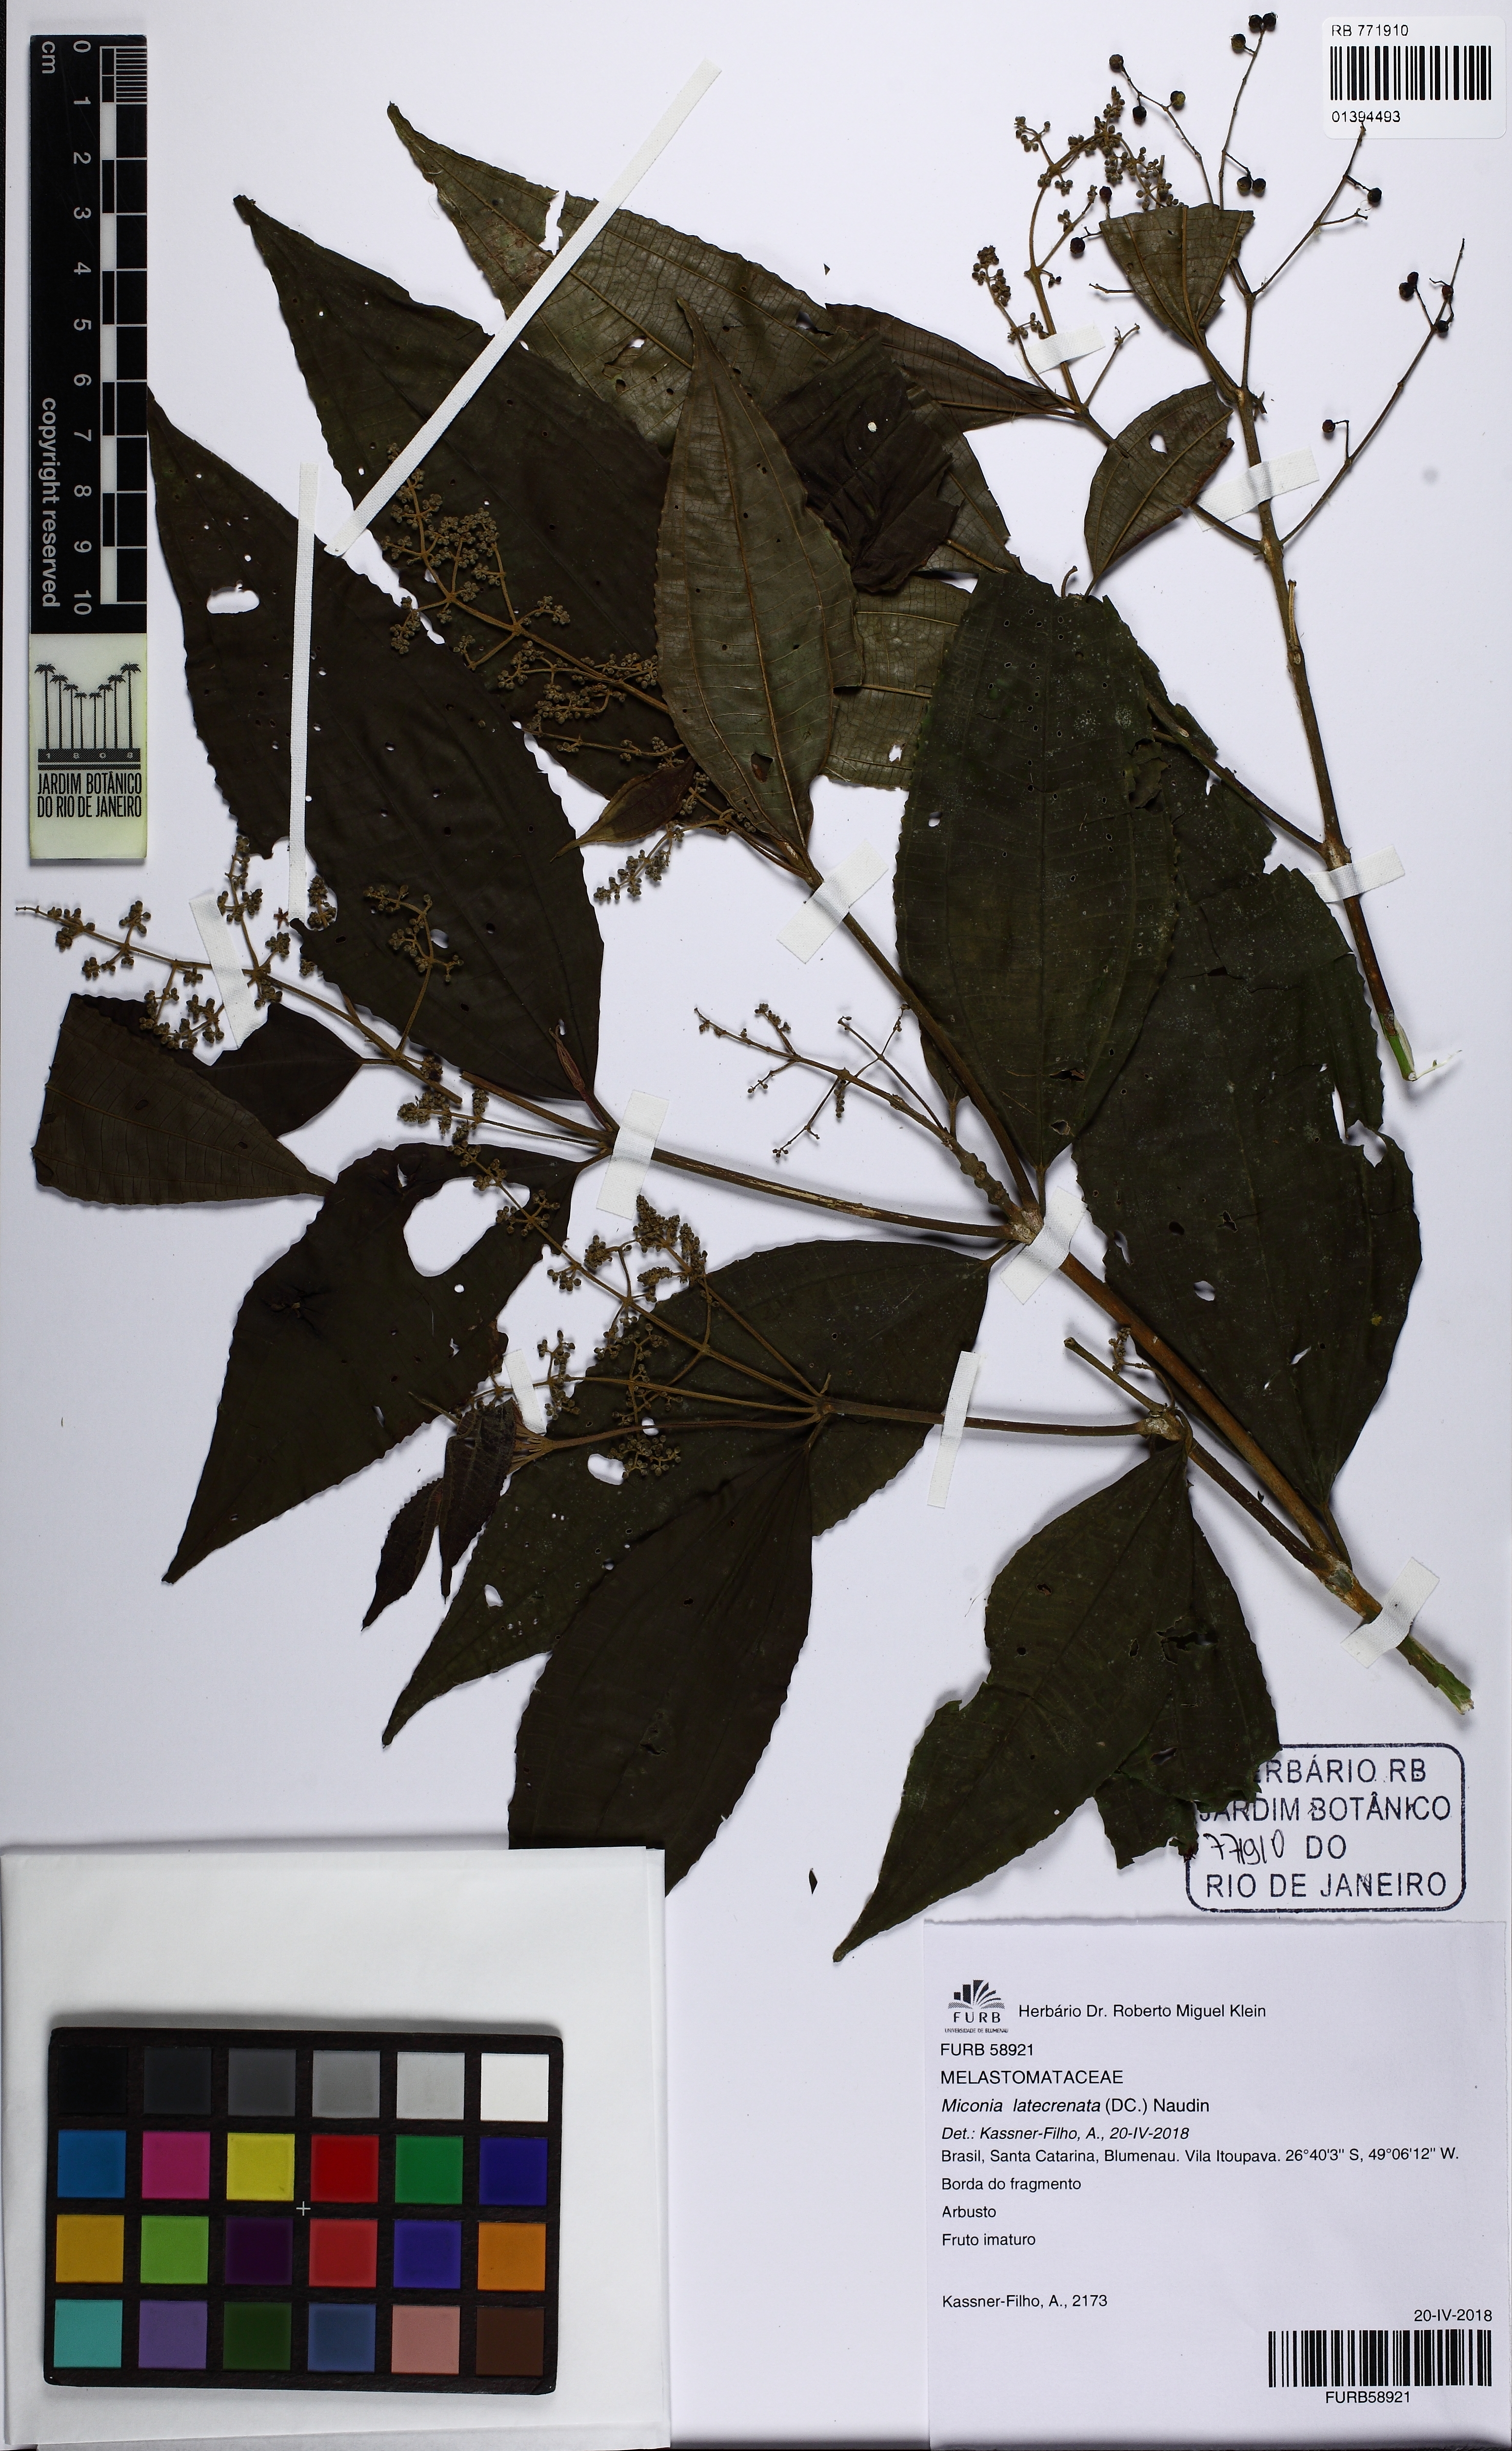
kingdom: Plantae
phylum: Tracheophyta
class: Magnoliopsida
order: Myrtales
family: Melastomataceae
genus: Miconia
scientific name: Miconia latecrenata
